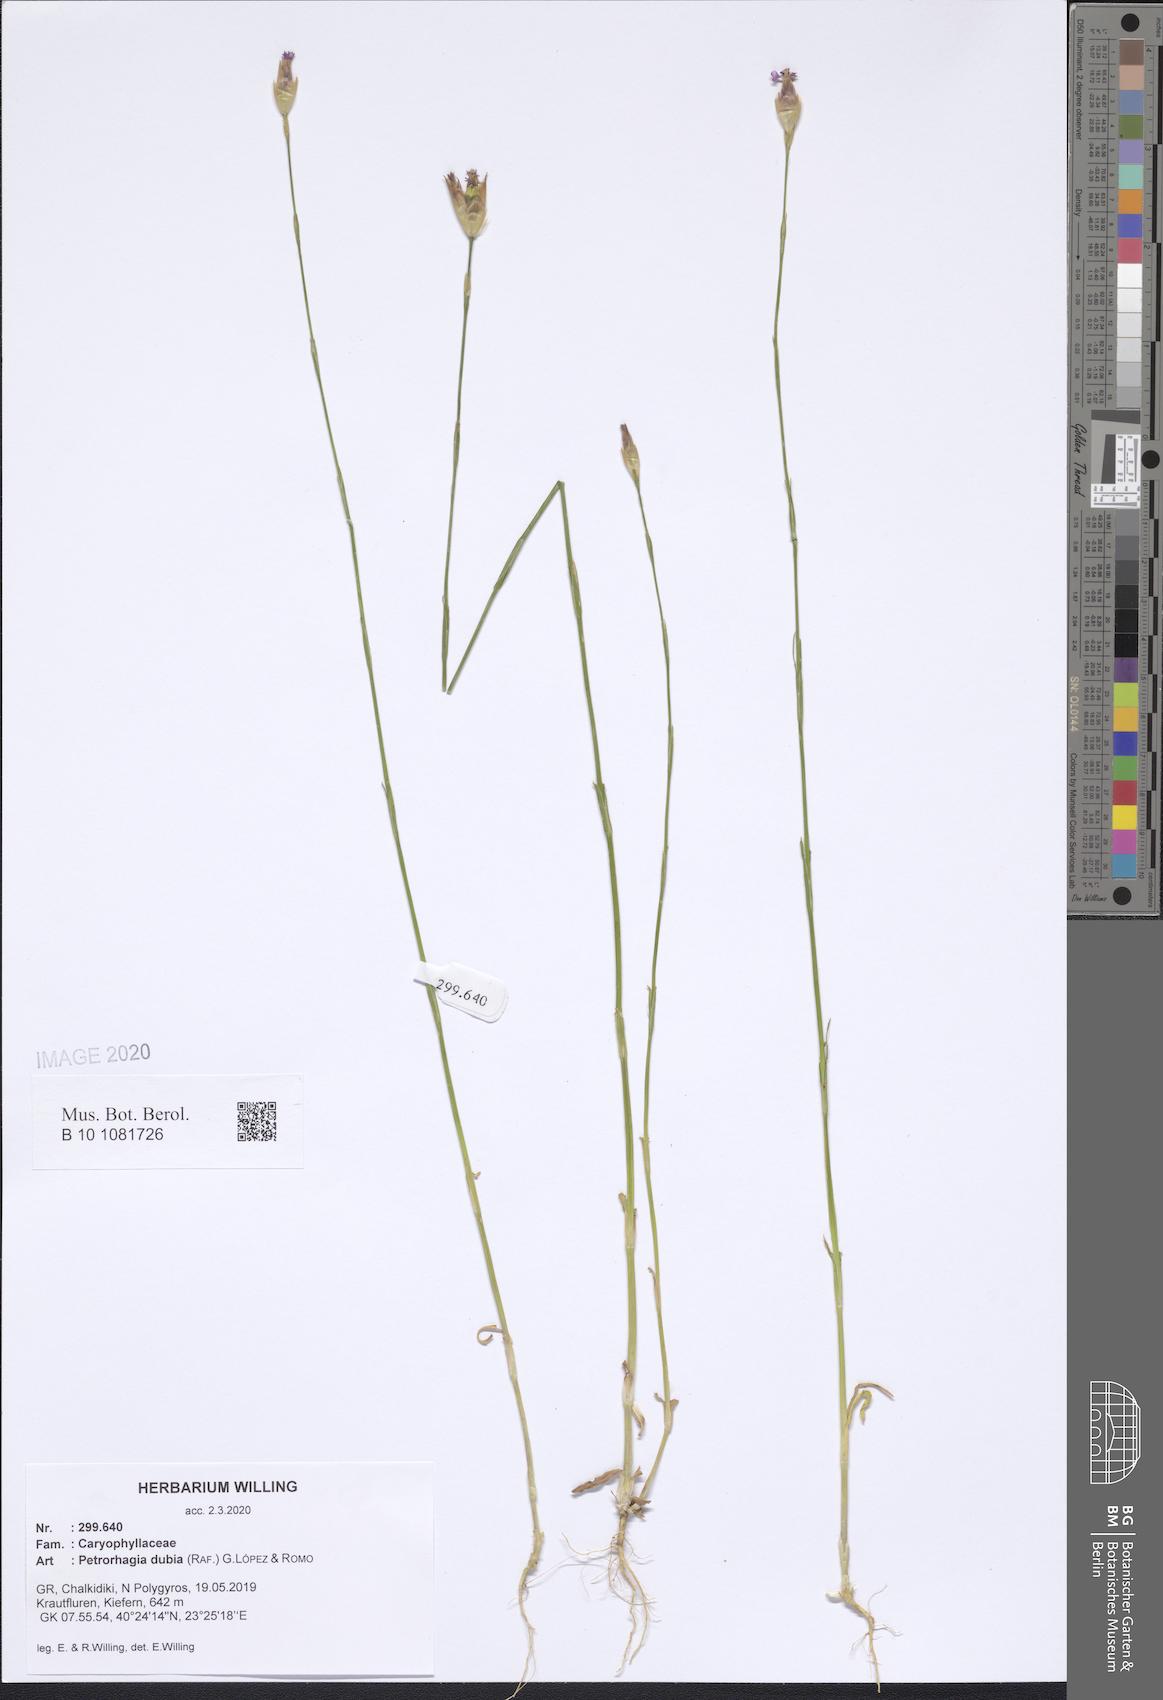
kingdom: Plantae
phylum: Tracheophyta
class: Magnoliopsida
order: Caryophyllales
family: Caryophyllaceae
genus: Petrorhagia
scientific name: Petrorhagia dubia
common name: Hairypink
